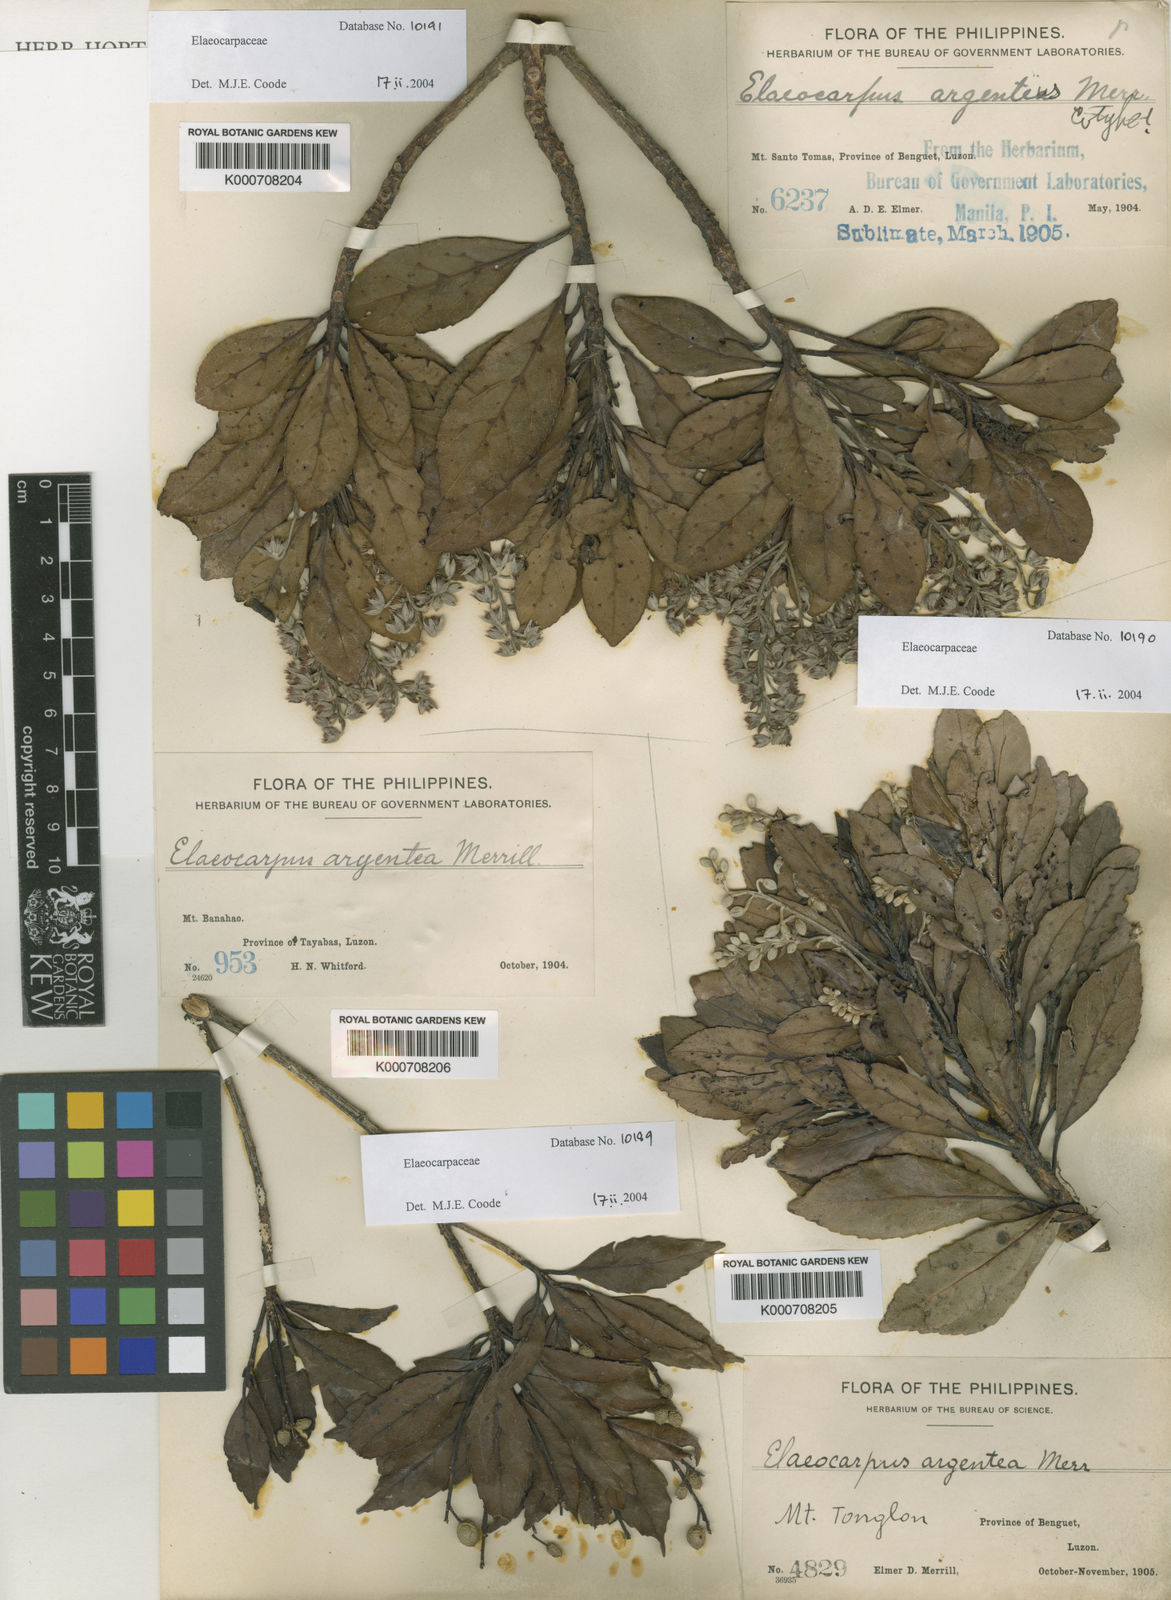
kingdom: Plantae
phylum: Tracheophyta
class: Magnoliopsida
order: Oxalidales
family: Elaeocarpaceae
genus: Elaeocarpus
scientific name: Elaeocarpus argenteus
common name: Flowering plant
